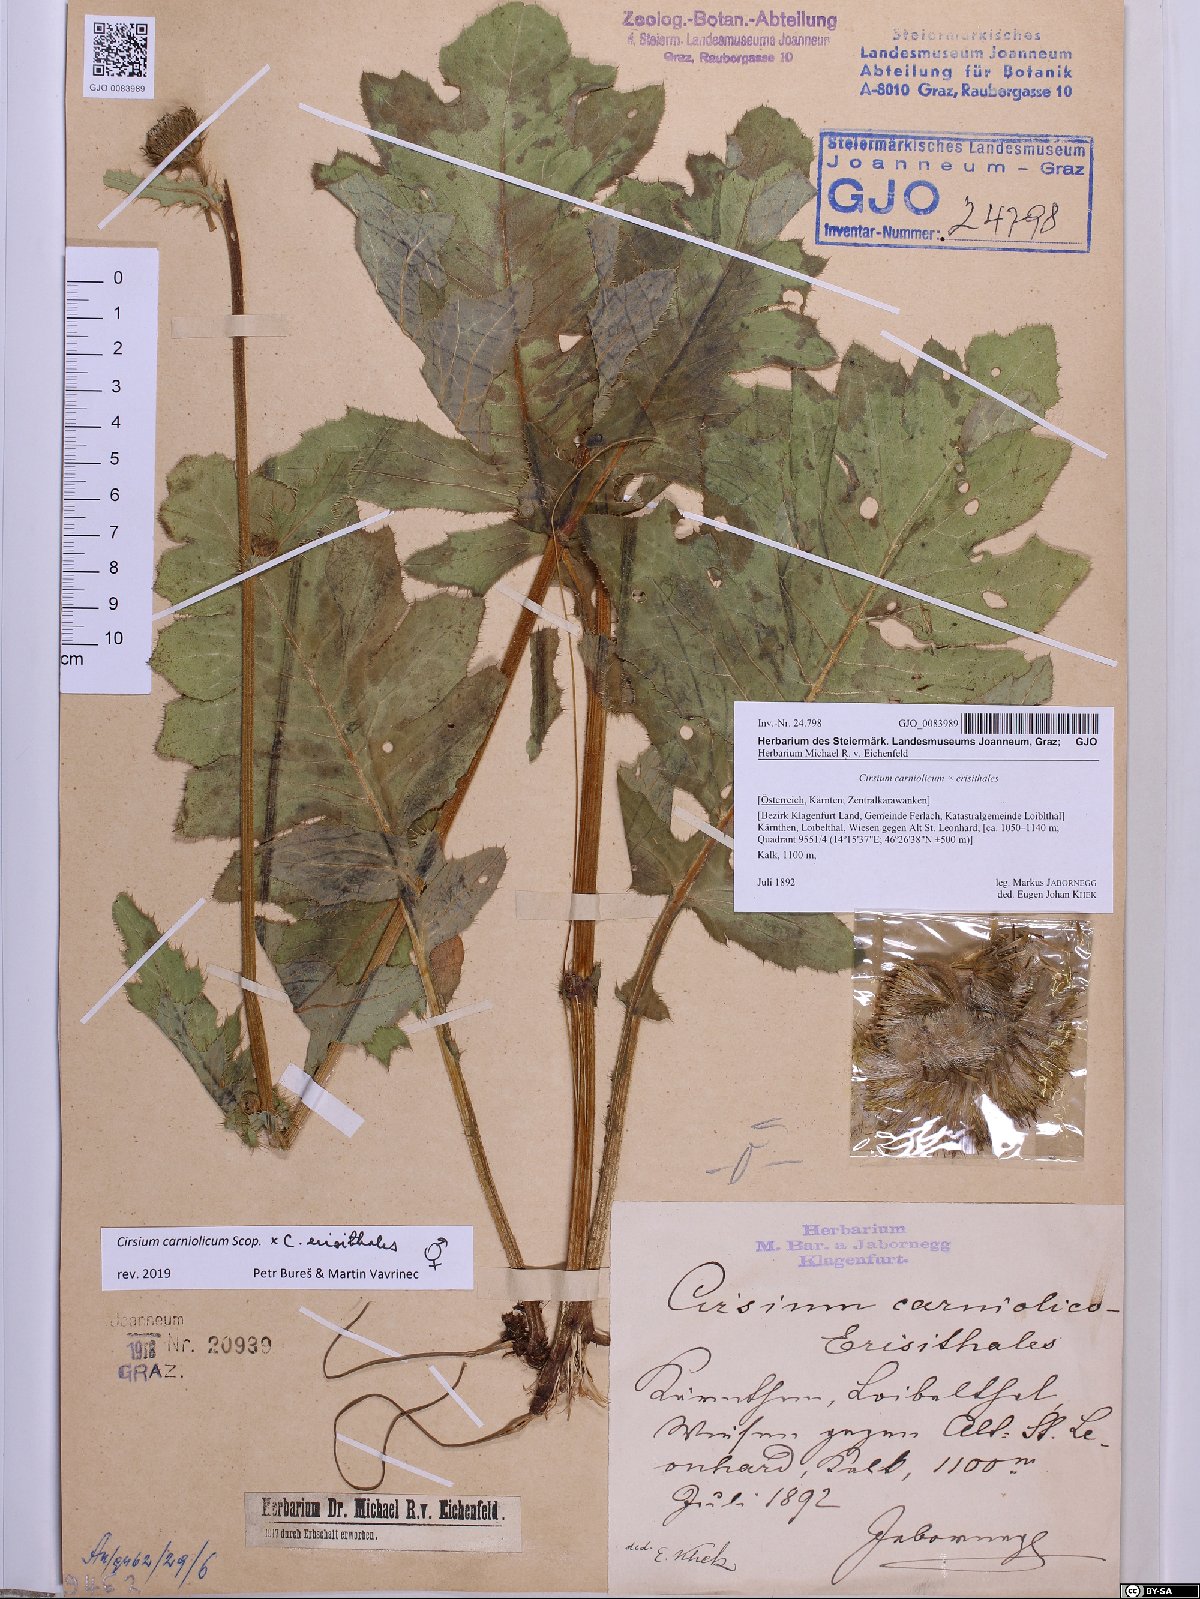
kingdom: Plantae
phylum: Tracheophyta
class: Magnoliopsida
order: Asterales
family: Asteraceae
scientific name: Asteraceae
